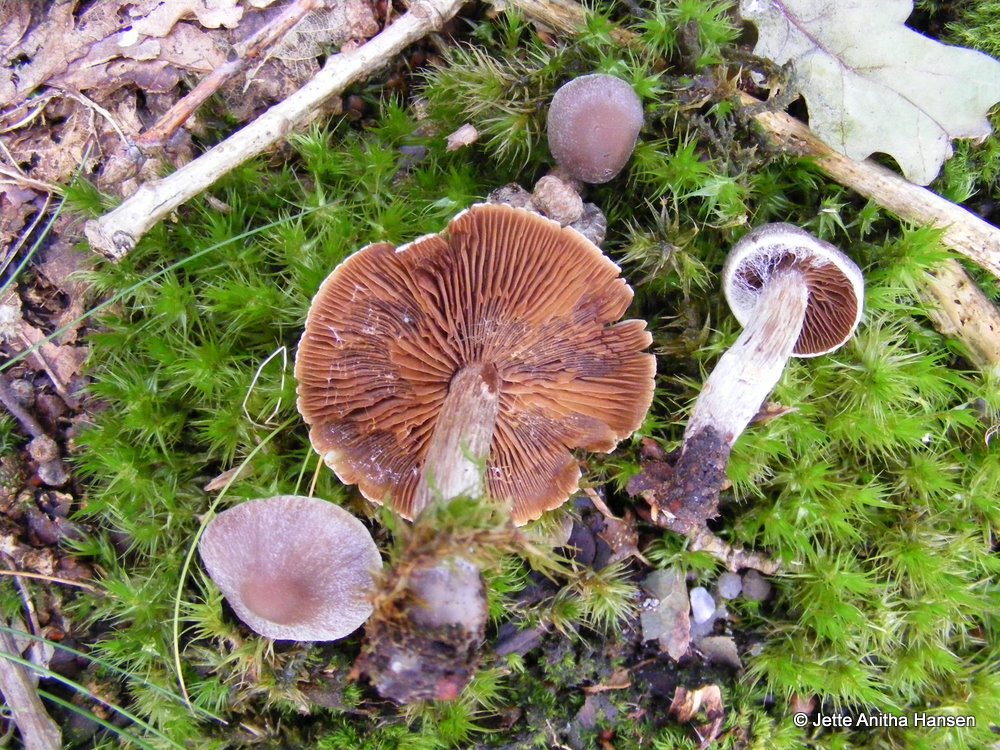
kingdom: Fungi
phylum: Basidiomycota
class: Agaricomycetes
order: Agaricales
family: Cortinariaceae
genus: Cortinarius
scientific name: Cortinarius
